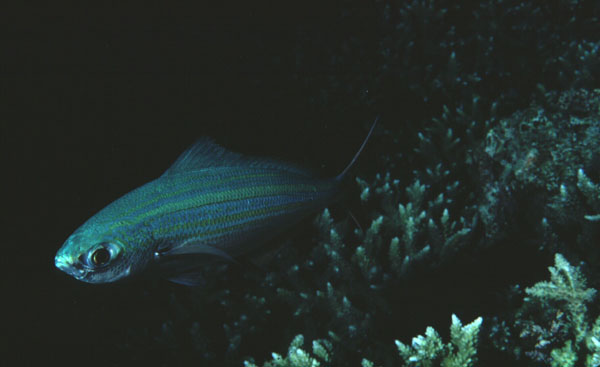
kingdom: Animalia
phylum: Chordata
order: Perciformes
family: Caesionidae
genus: Caesio
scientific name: Caesio varilineata
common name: Variable-lined fusilier
